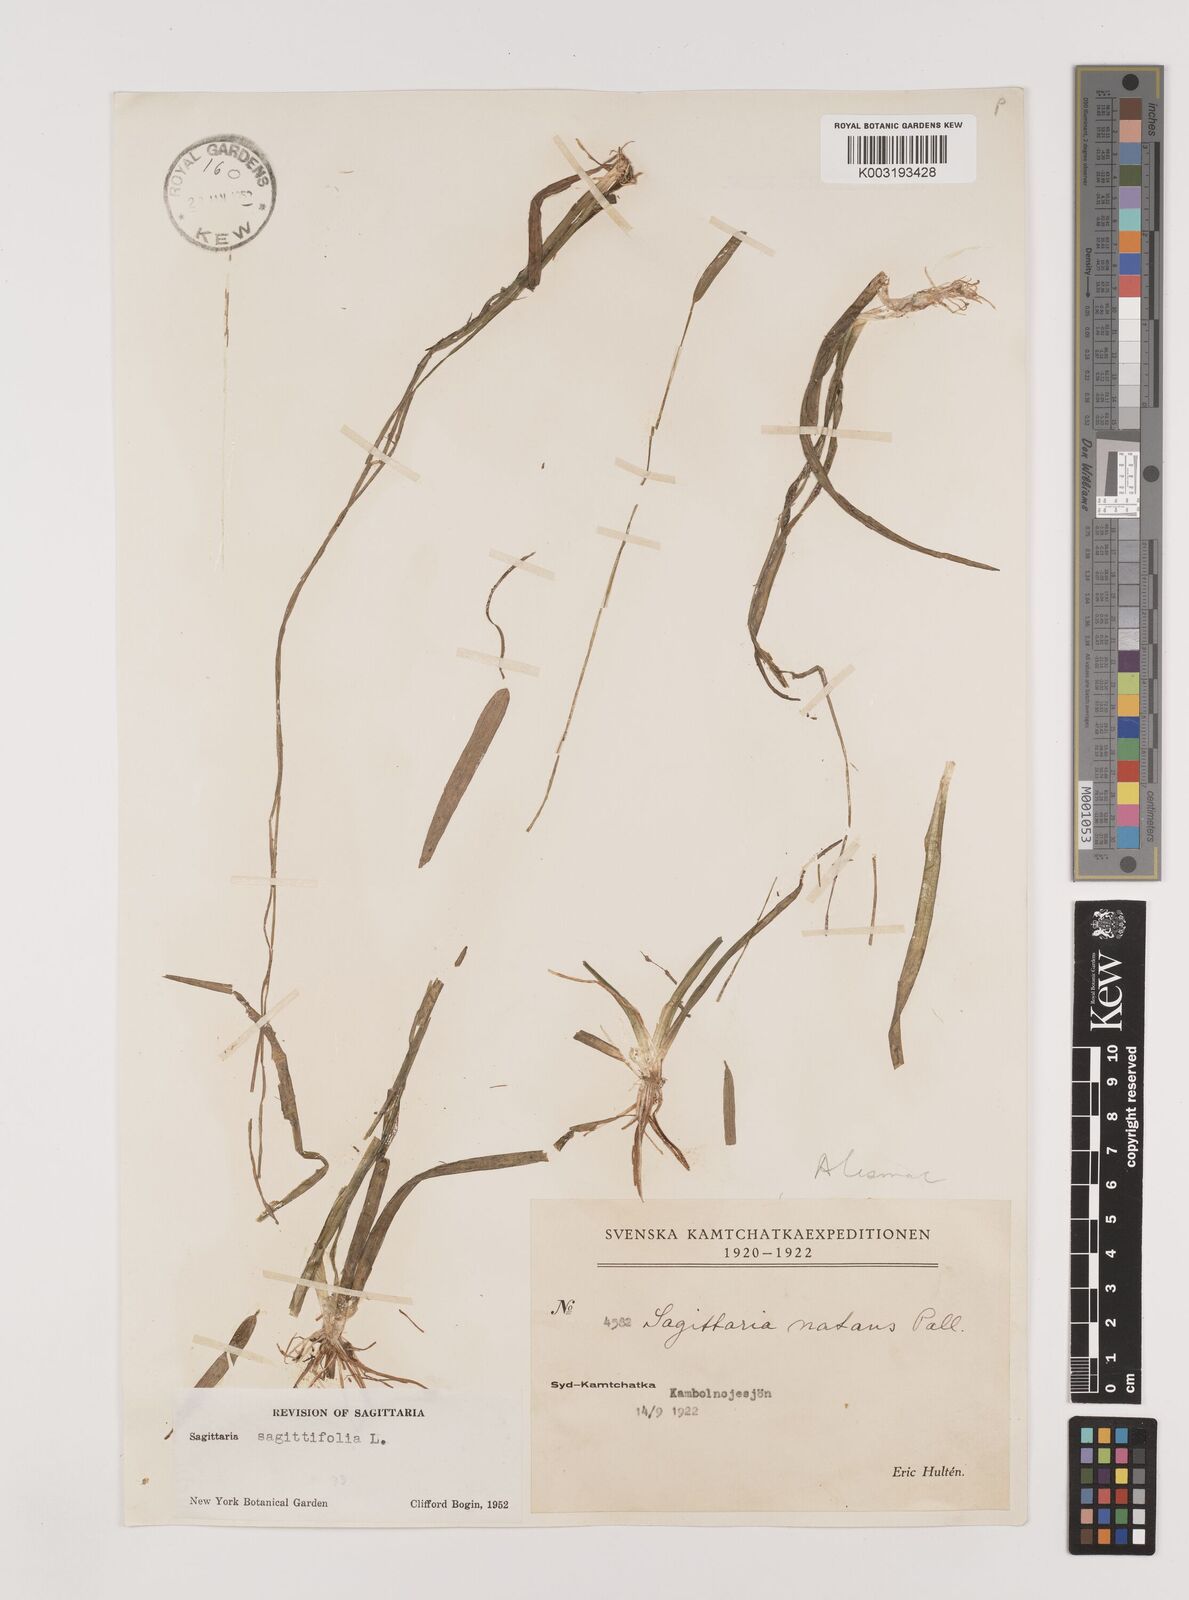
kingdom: Plantae
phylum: Tracheophyta
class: Liliopsida
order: Alismatales
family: Alismataceae
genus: Sagittaria
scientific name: Sagittaria natans
